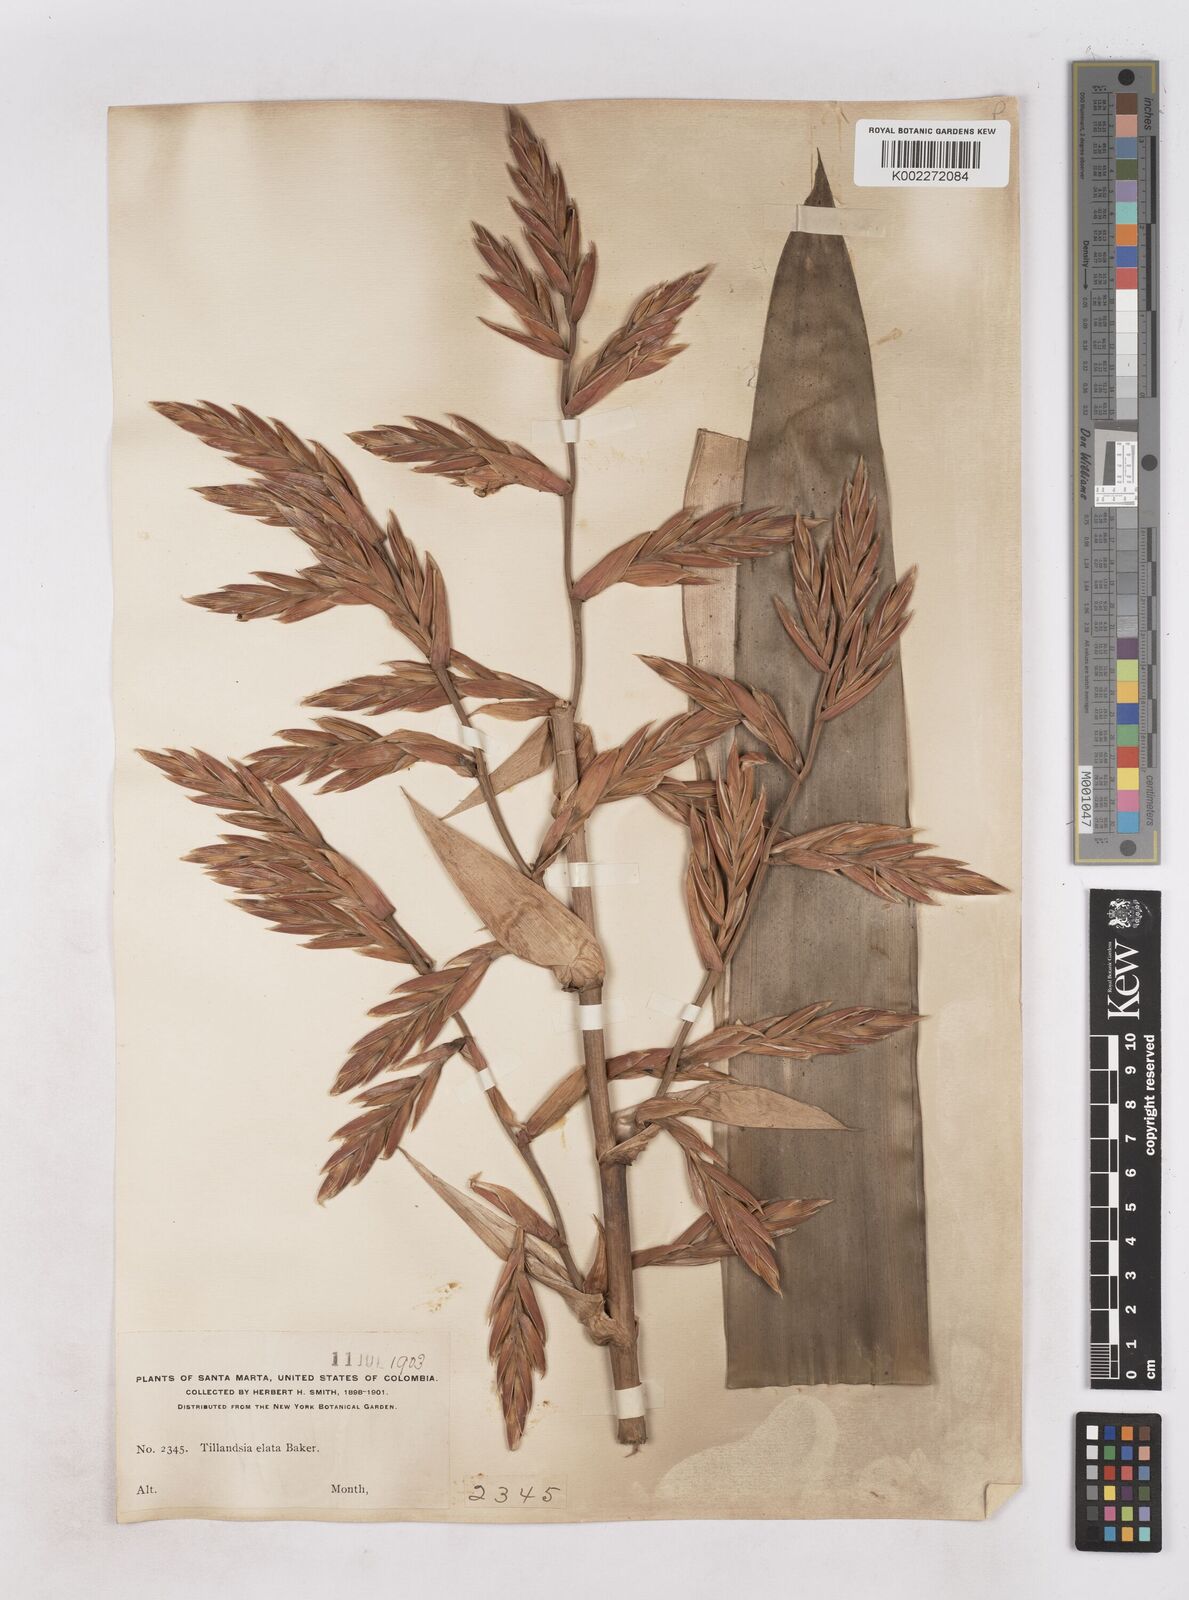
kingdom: Plantae
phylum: Tracheophyta
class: Liliopsida
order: Poales
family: Bromeliaceae
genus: Vriesea
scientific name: Vriesea elata
